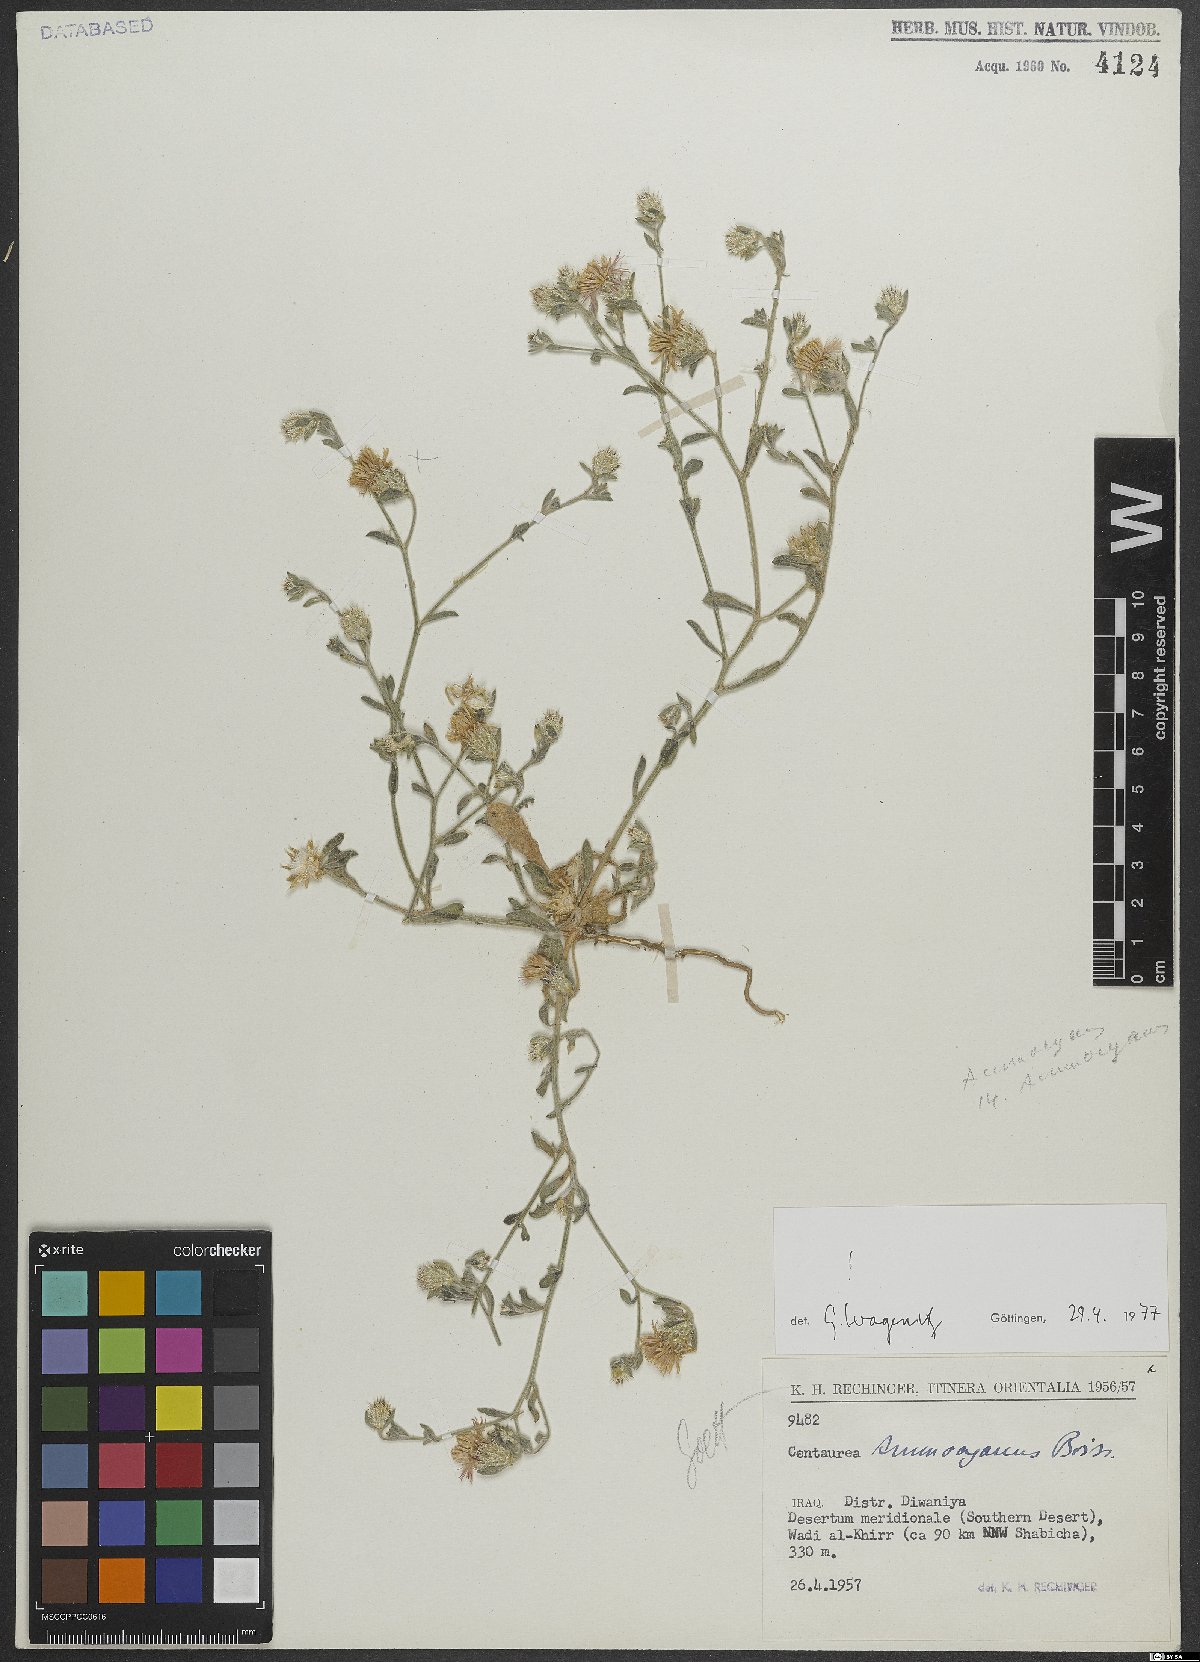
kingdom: Plantae
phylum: Tracheophyta
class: Magnoliopsida
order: Asterales
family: Asteraceae
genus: Centaurea
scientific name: Centaurea ammocyanus
